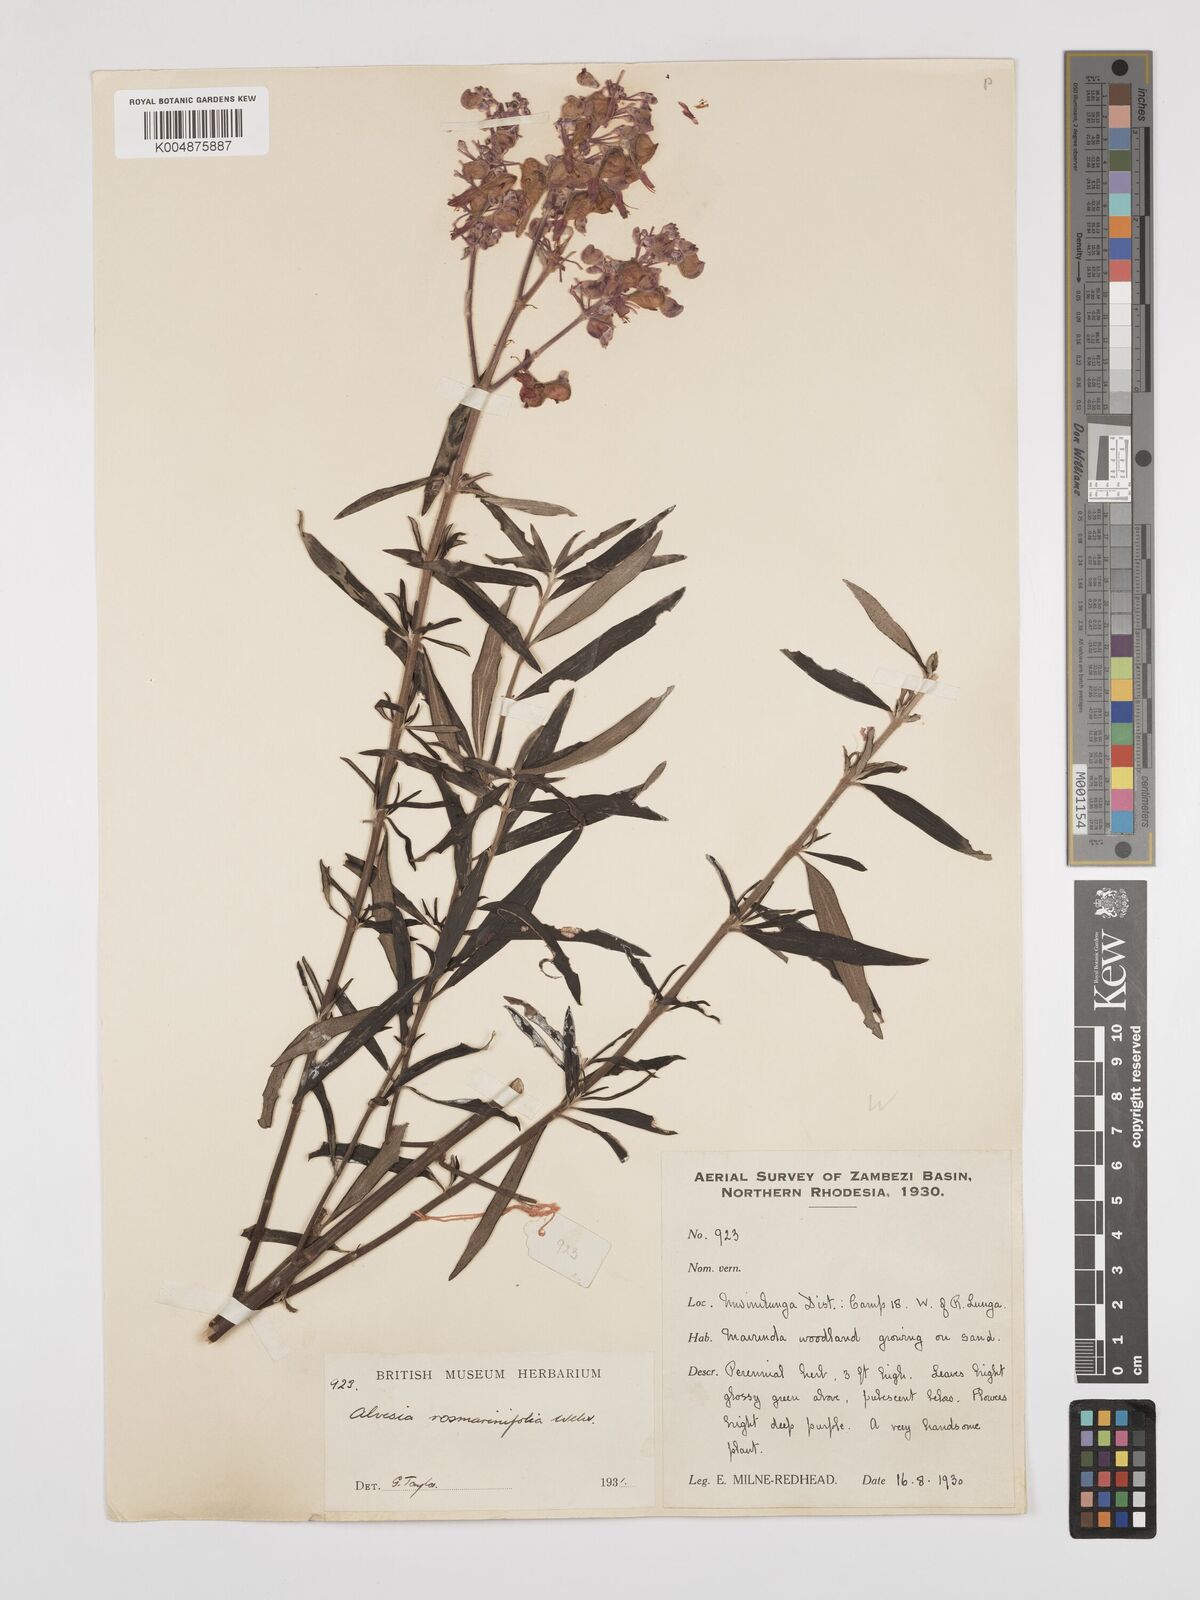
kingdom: Plantae
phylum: Tracheophyta
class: Magnoliopsida
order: Lamiales
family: Lamiaceae
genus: Alvesia
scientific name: Alvesia rosmarinifolia
